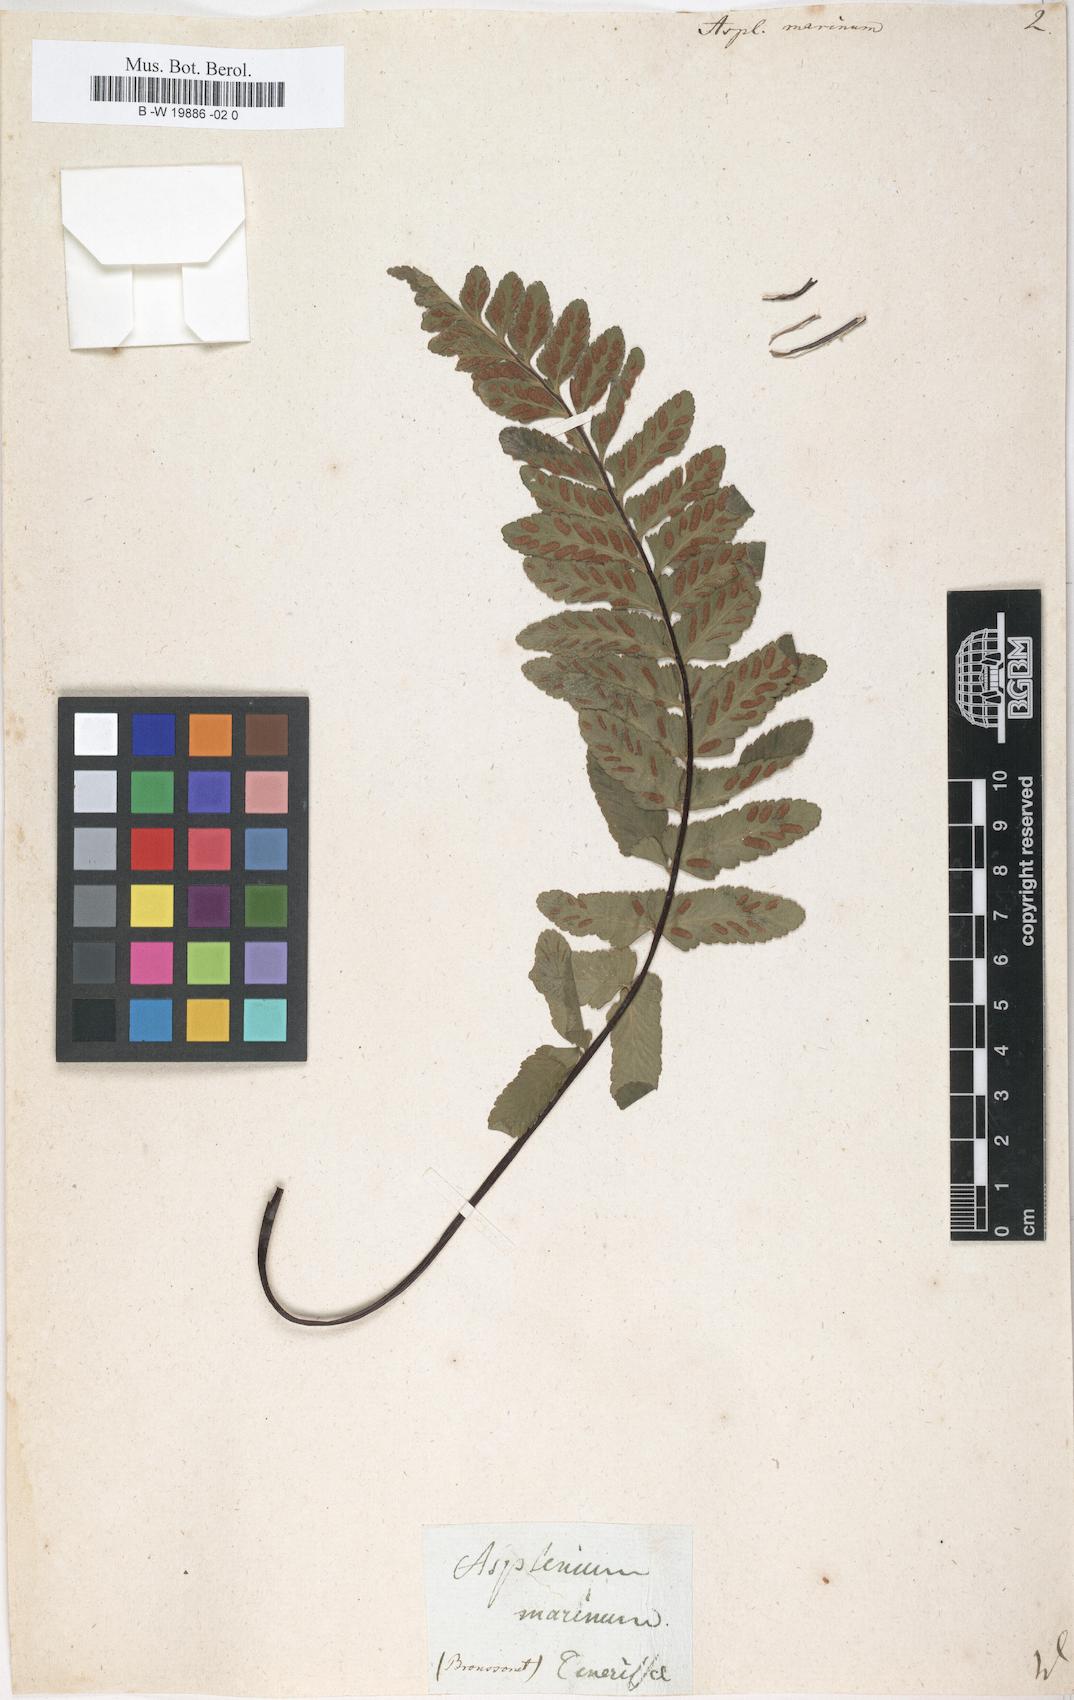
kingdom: Plantae
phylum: Tracheophyta
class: Polypodiopsida
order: Polypodiales
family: Aspleniaceae
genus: Asplenium
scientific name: Asplenium marinum
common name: Sea spleenwort
